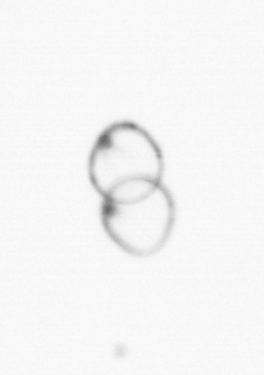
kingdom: Chromista
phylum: Myzozoa
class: Dinophyceae
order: Noctilucales
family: Noctilucaceae
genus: Noctiluca
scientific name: Noctiluca scintillans
